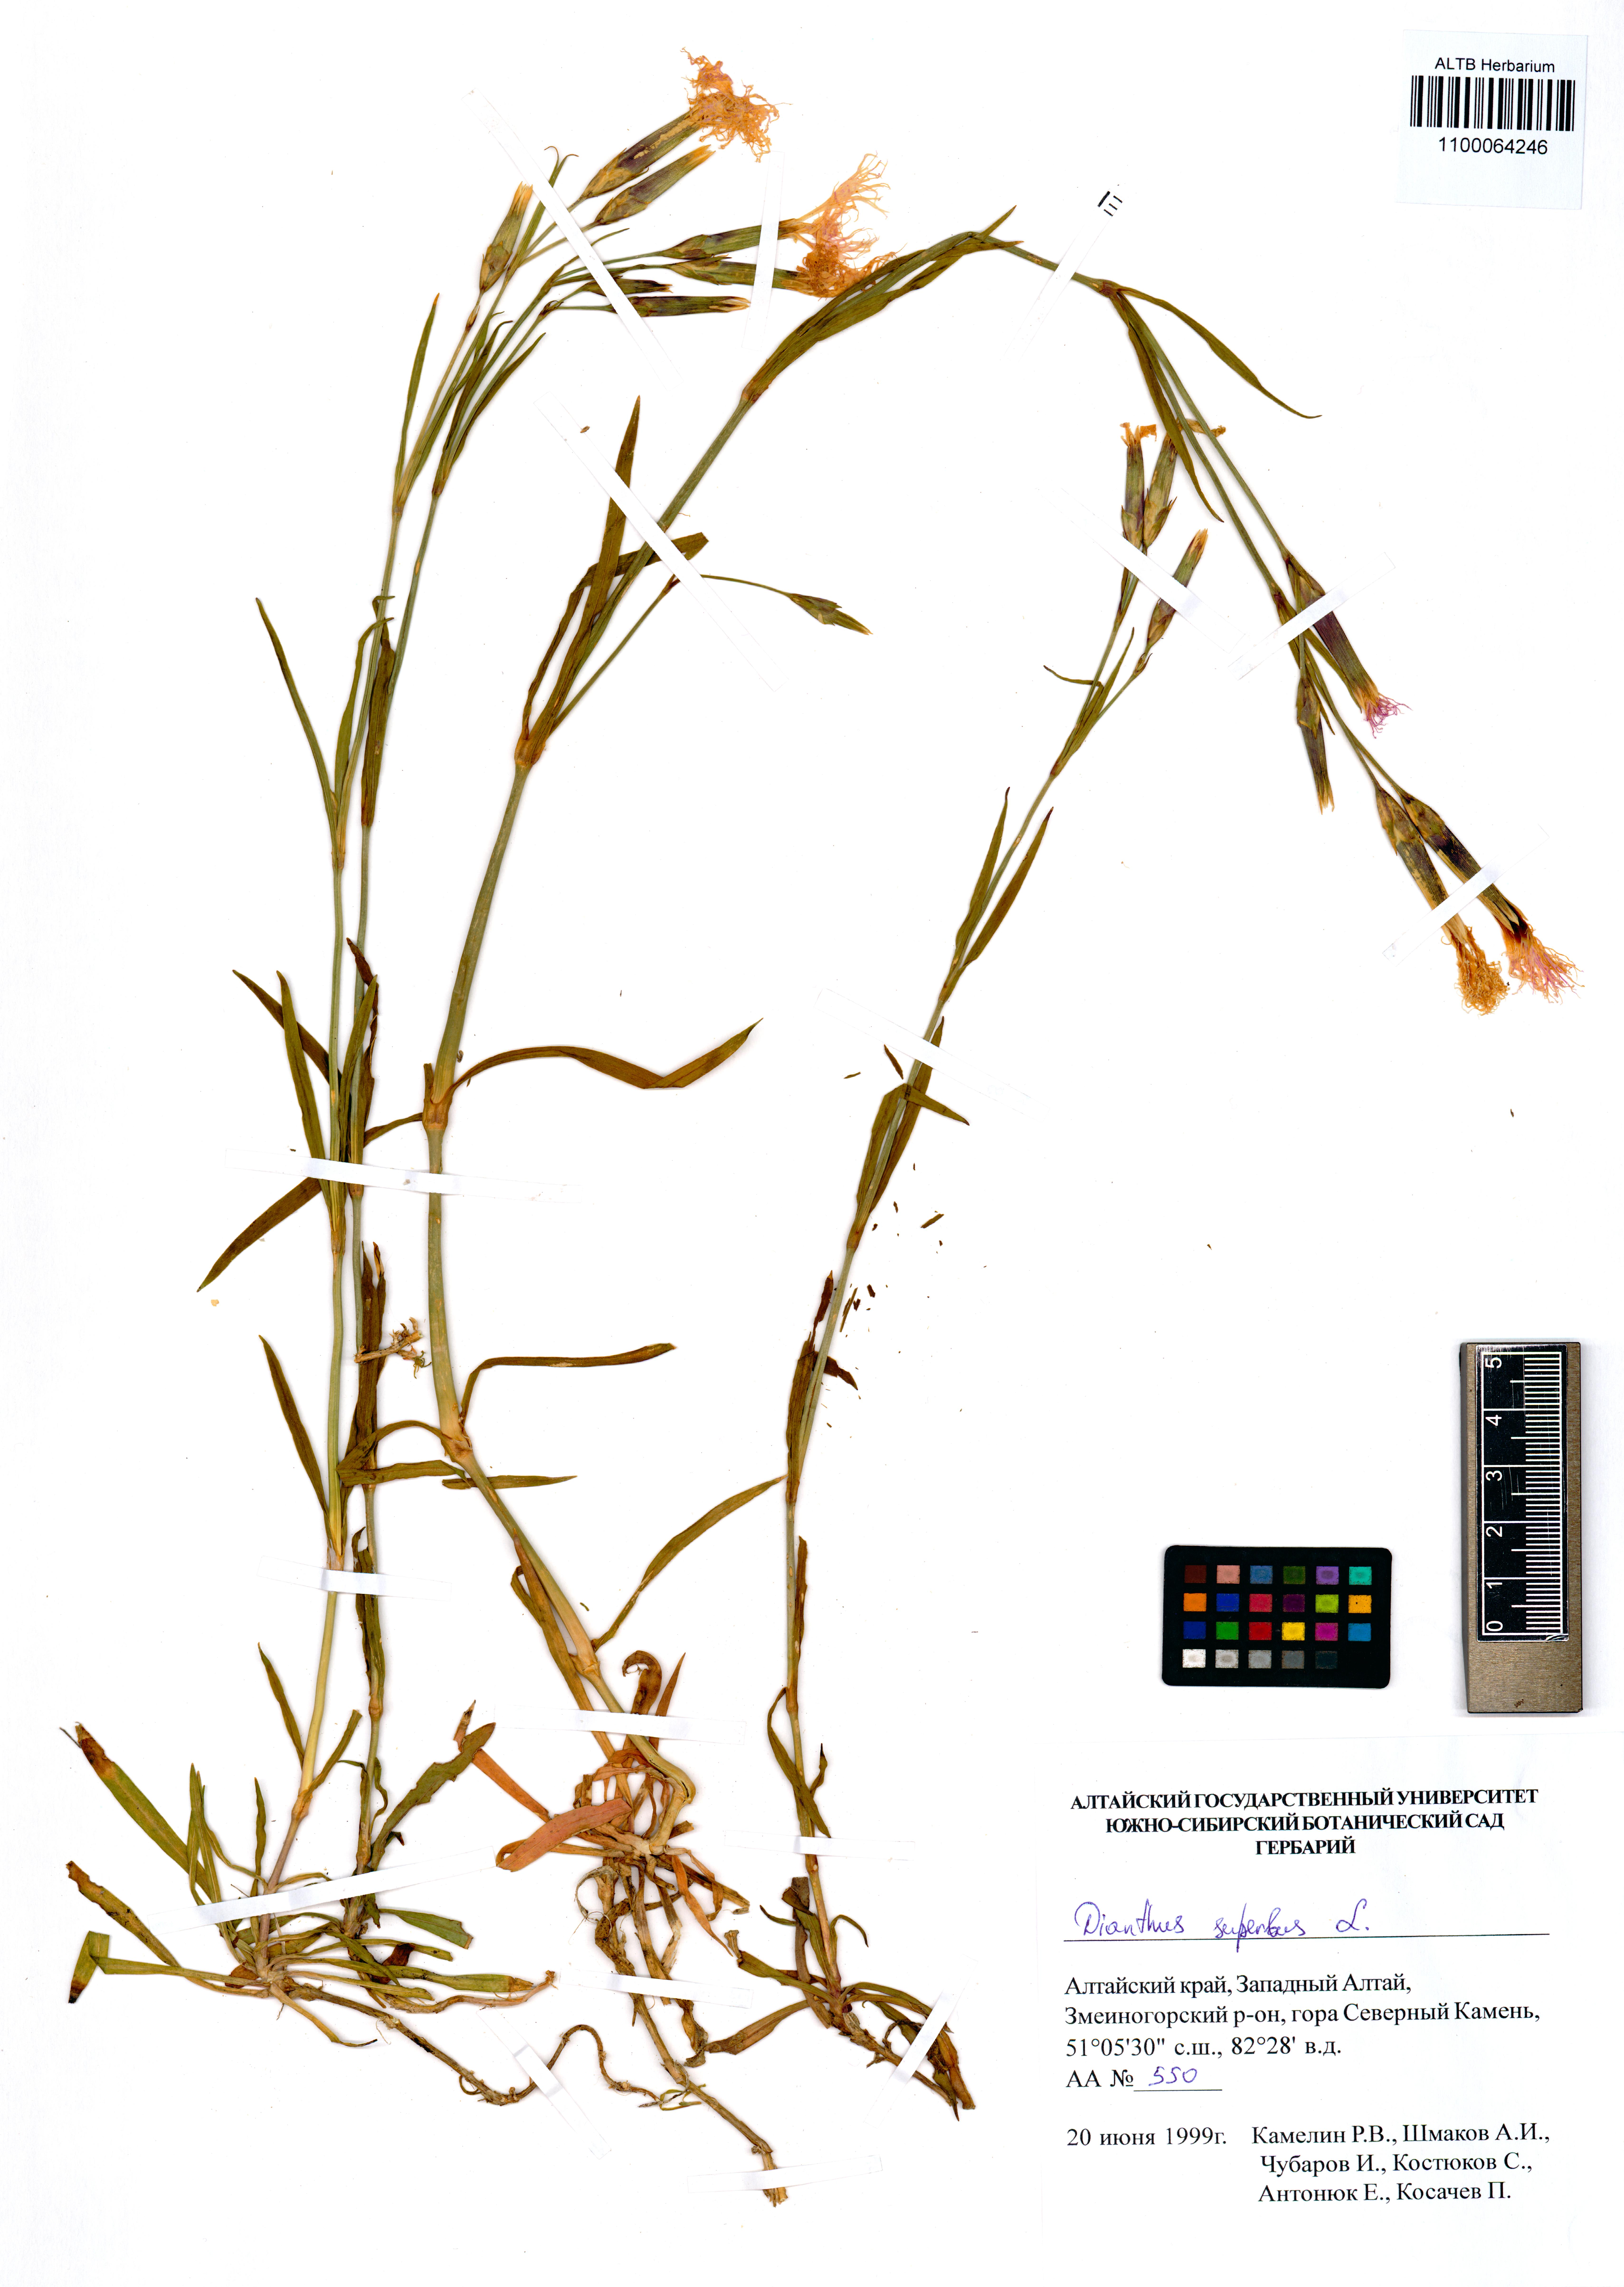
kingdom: Plantae
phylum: Tracheophyta
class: Magnoliopsida
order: Caryophyllales
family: Caryophyllaceae
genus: Dianthus
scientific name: Dianthus superbus
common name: Fringed pink
